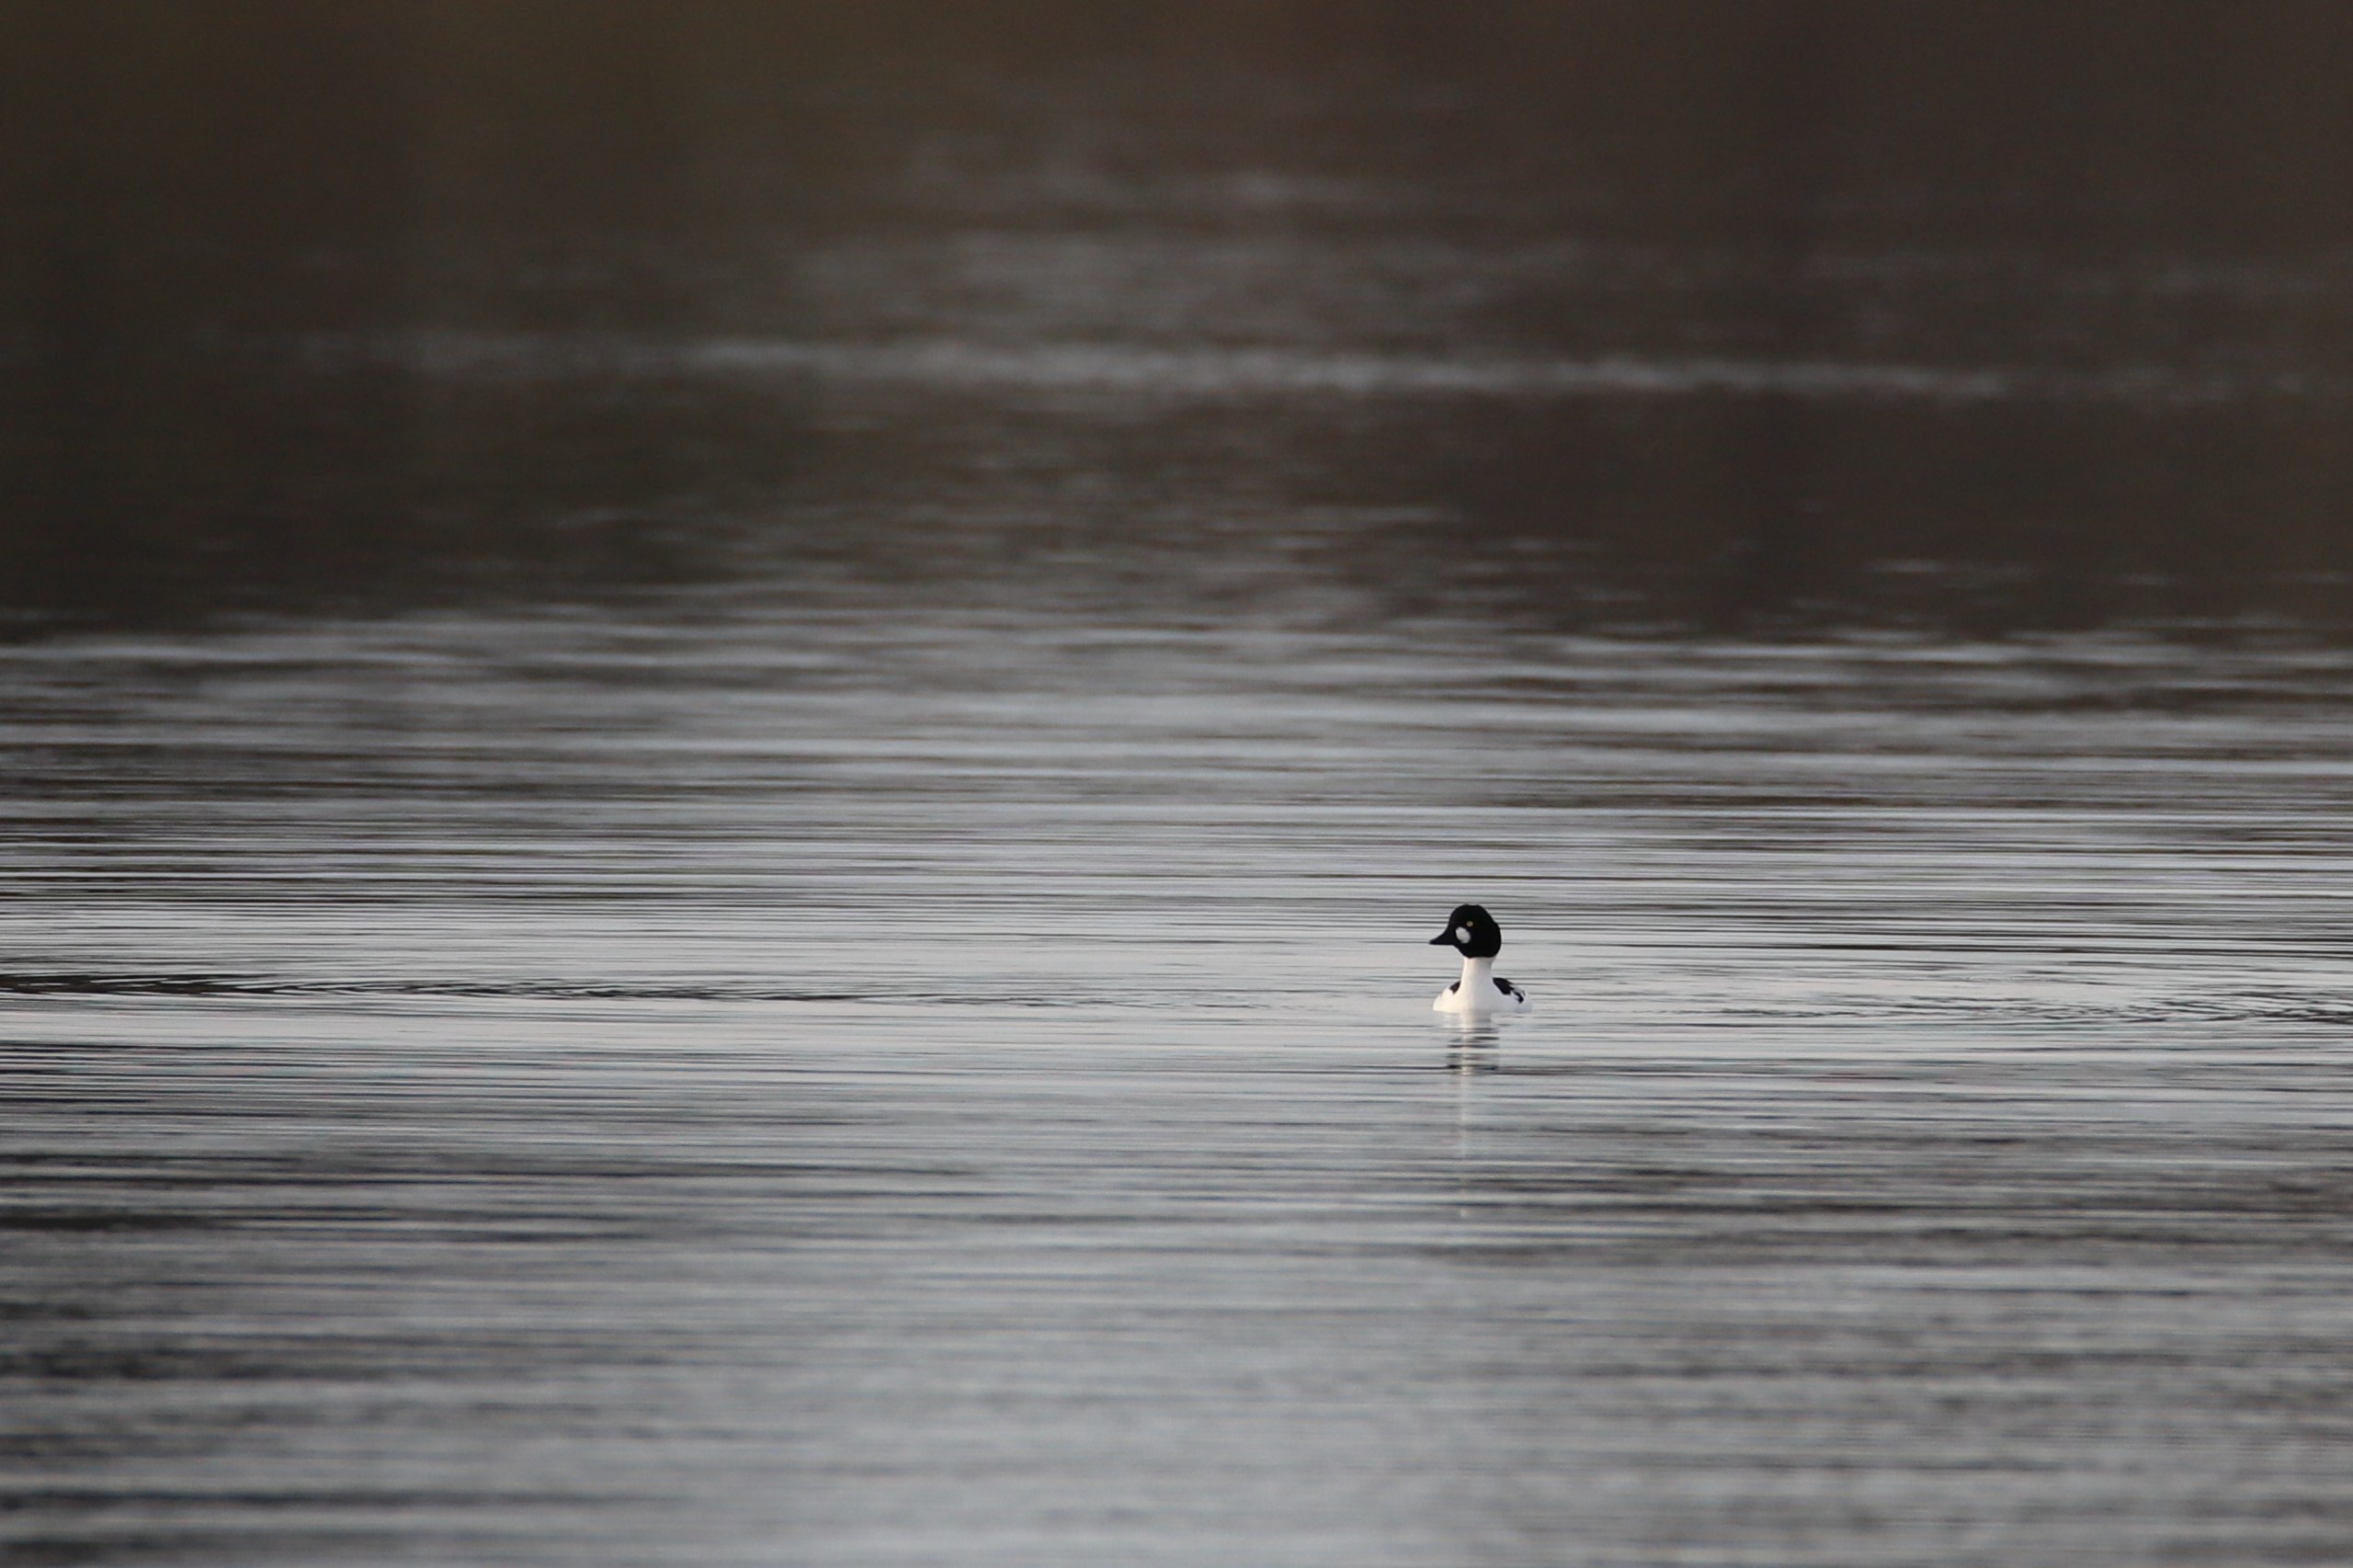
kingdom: Animalia
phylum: Chordata
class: Aves
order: Anseriformes
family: Anatidae
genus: Bucephala
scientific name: Bucephala clangula
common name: Hvinand
